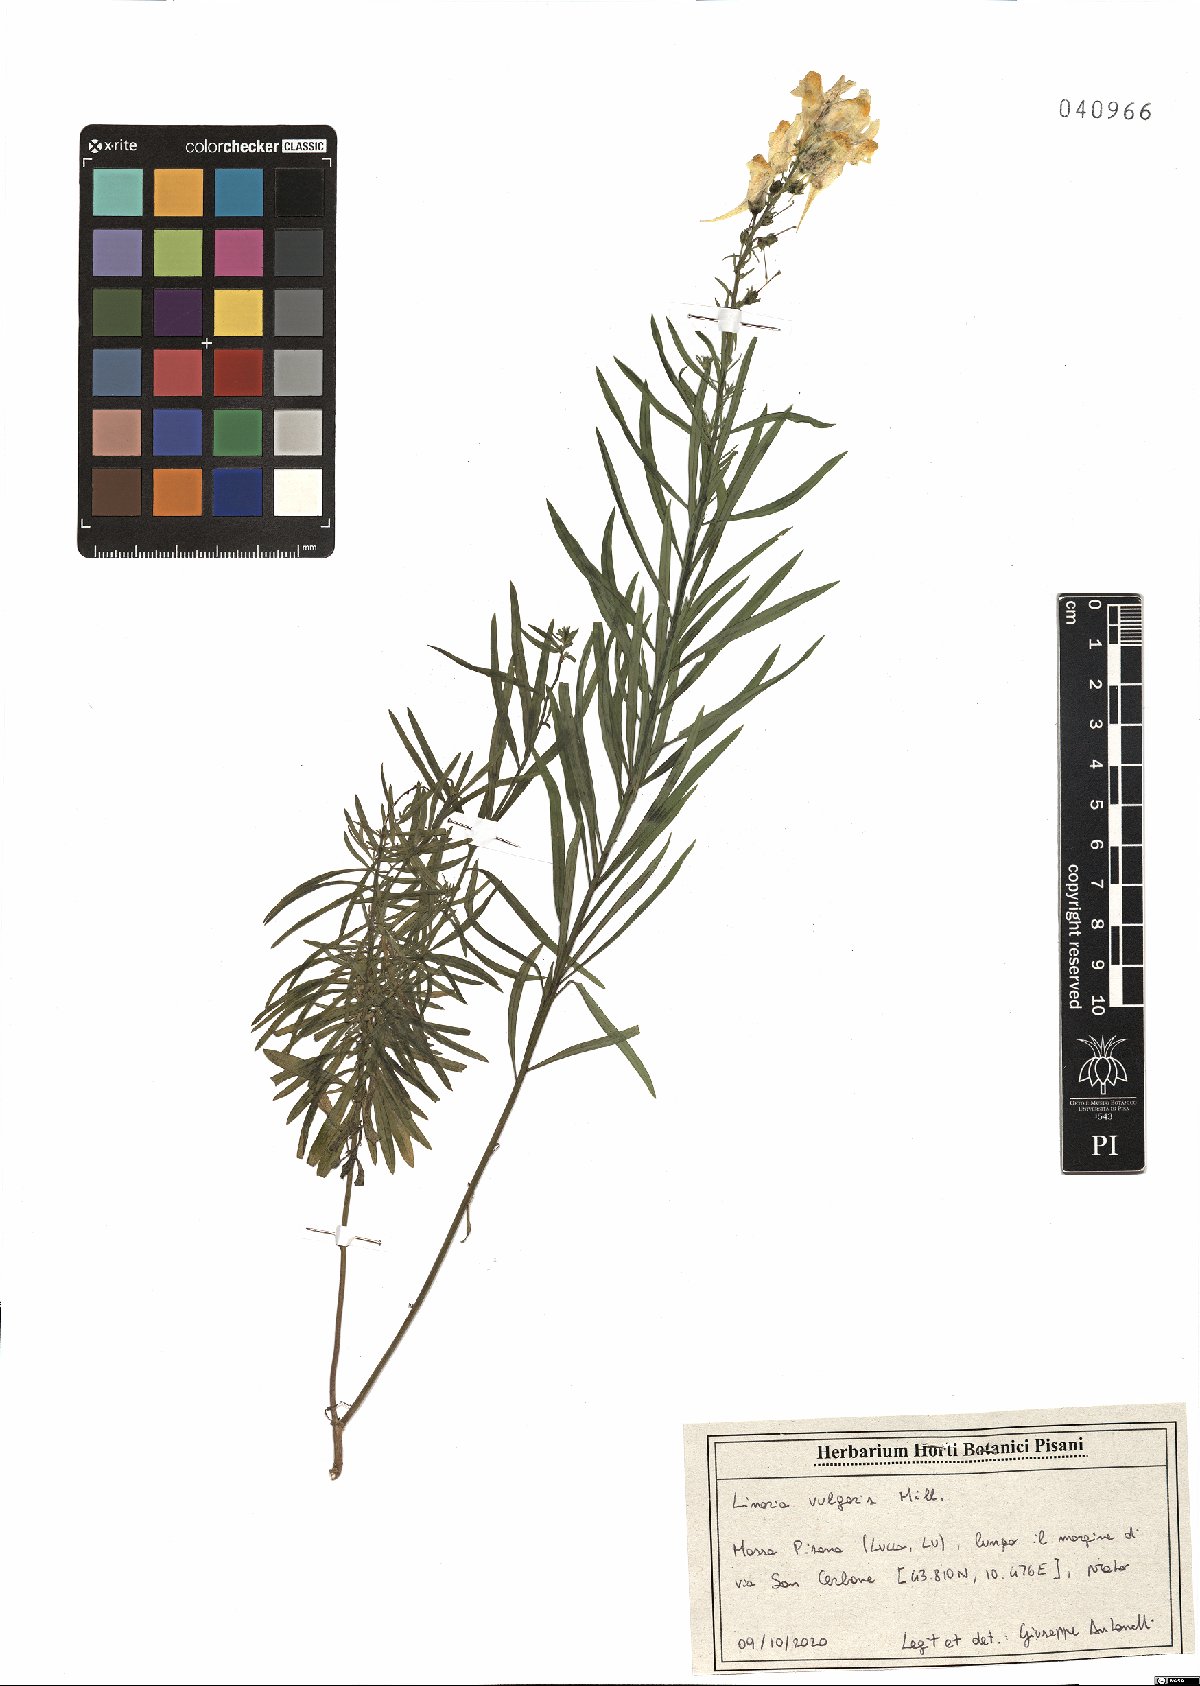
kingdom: Plantae
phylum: Tracheophyta
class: Magnoliopsida
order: Lamiales
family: Plantaginaceae
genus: Linaria
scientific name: Linaria vulgaris
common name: Butter and eggs
